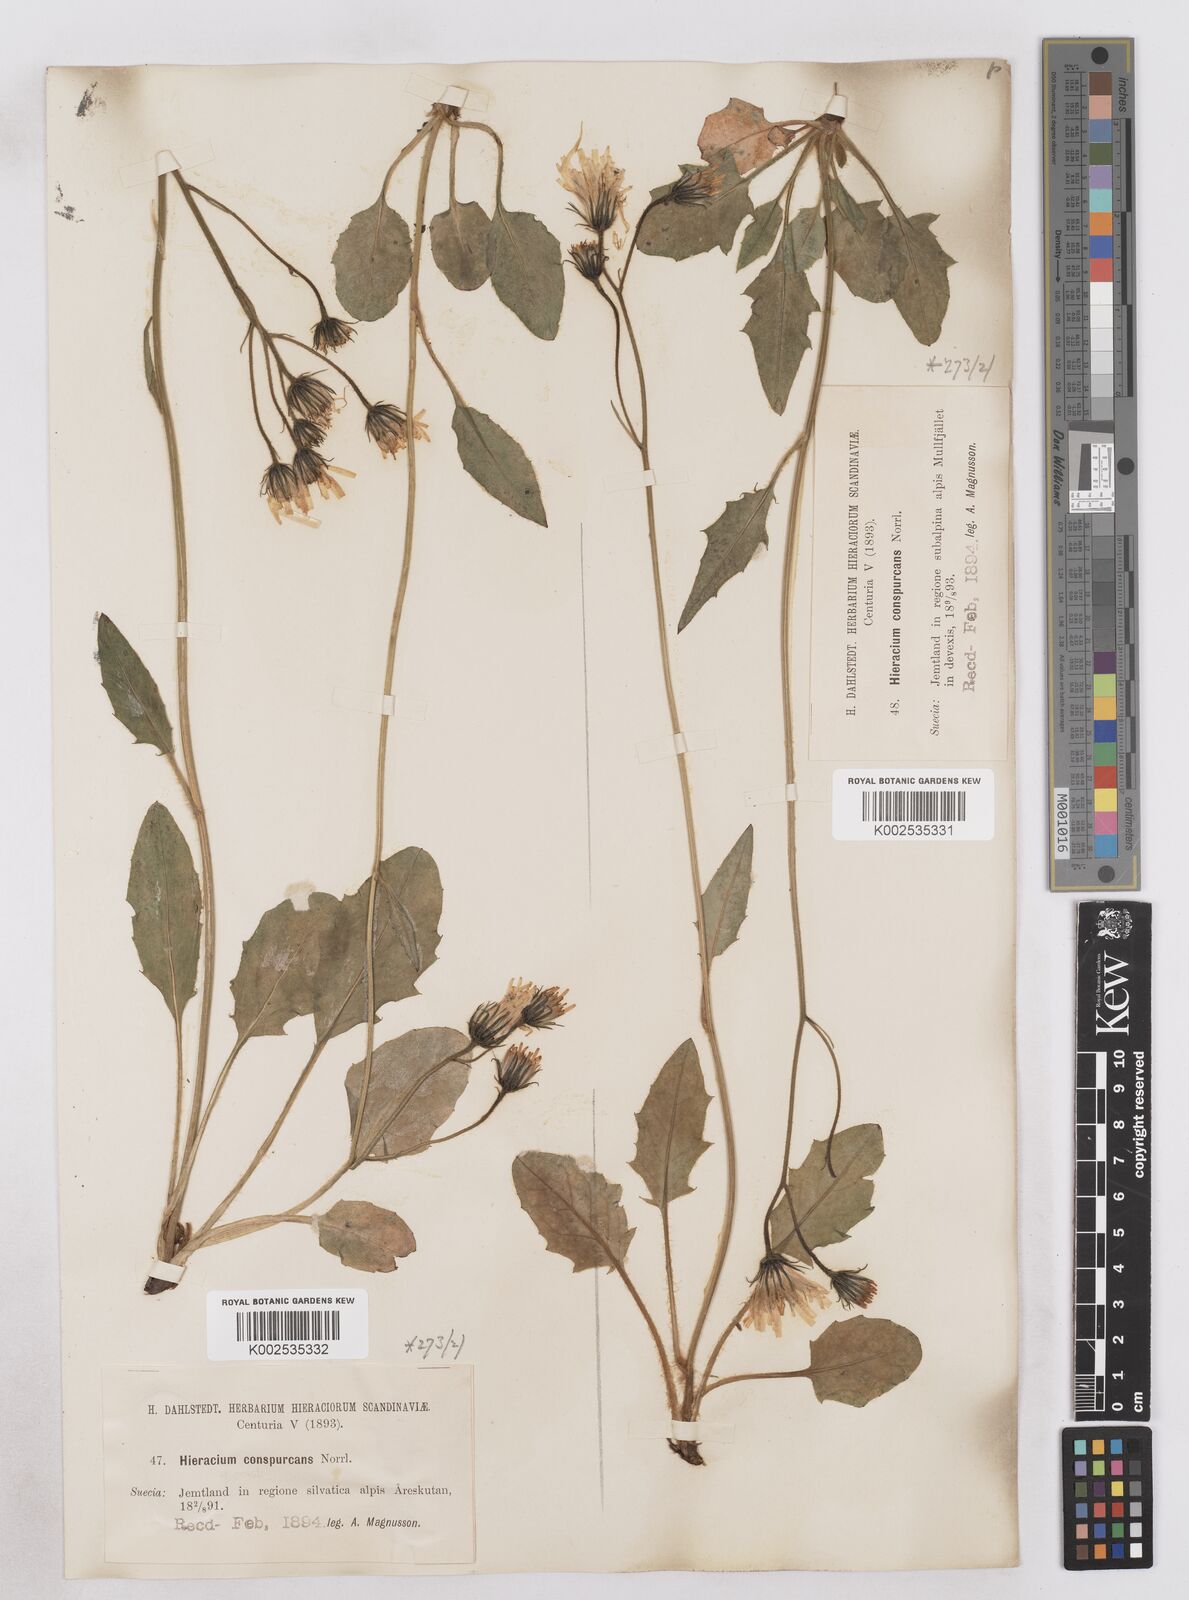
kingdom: Plantae
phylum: Tracheophyta
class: Magnoliopsida
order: Asterales
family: Asteraceae
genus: Hieracium
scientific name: Hieracium conspurcans
